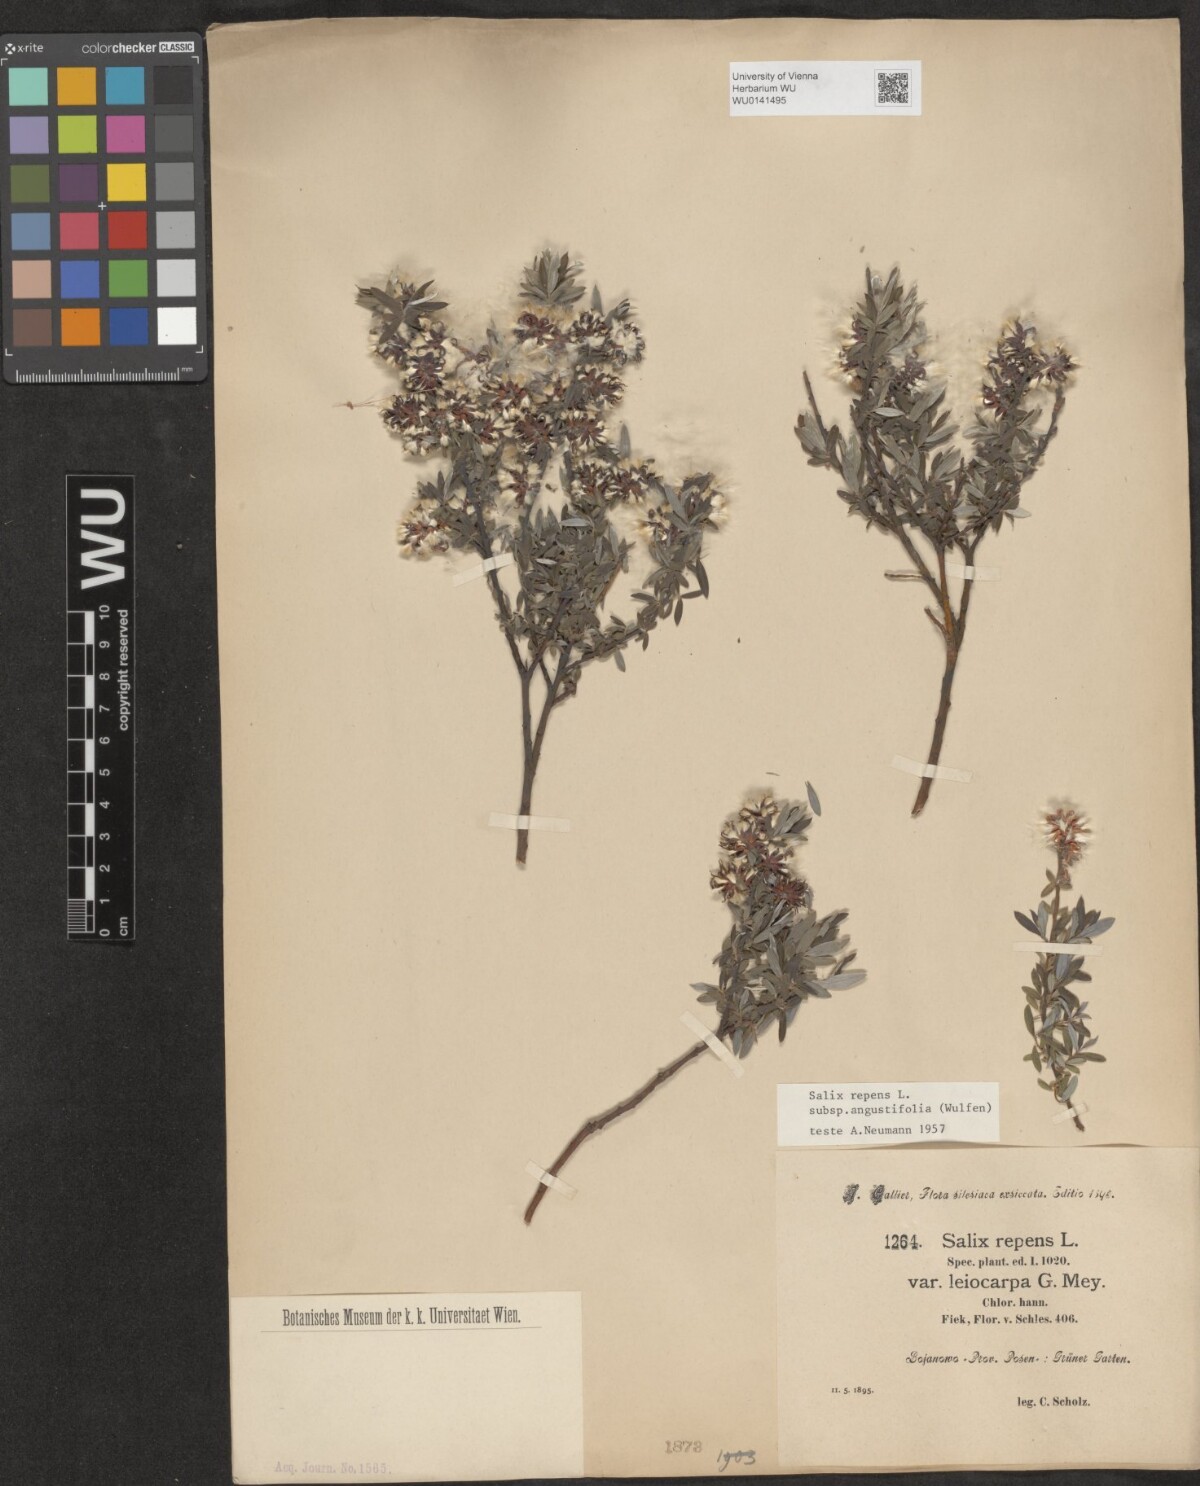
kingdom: Plantae
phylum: Tracheophyta
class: Magnoliopsida
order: Malpighiales
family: Salicaceae
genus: Salix
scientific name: Salix rosmarinifolia
